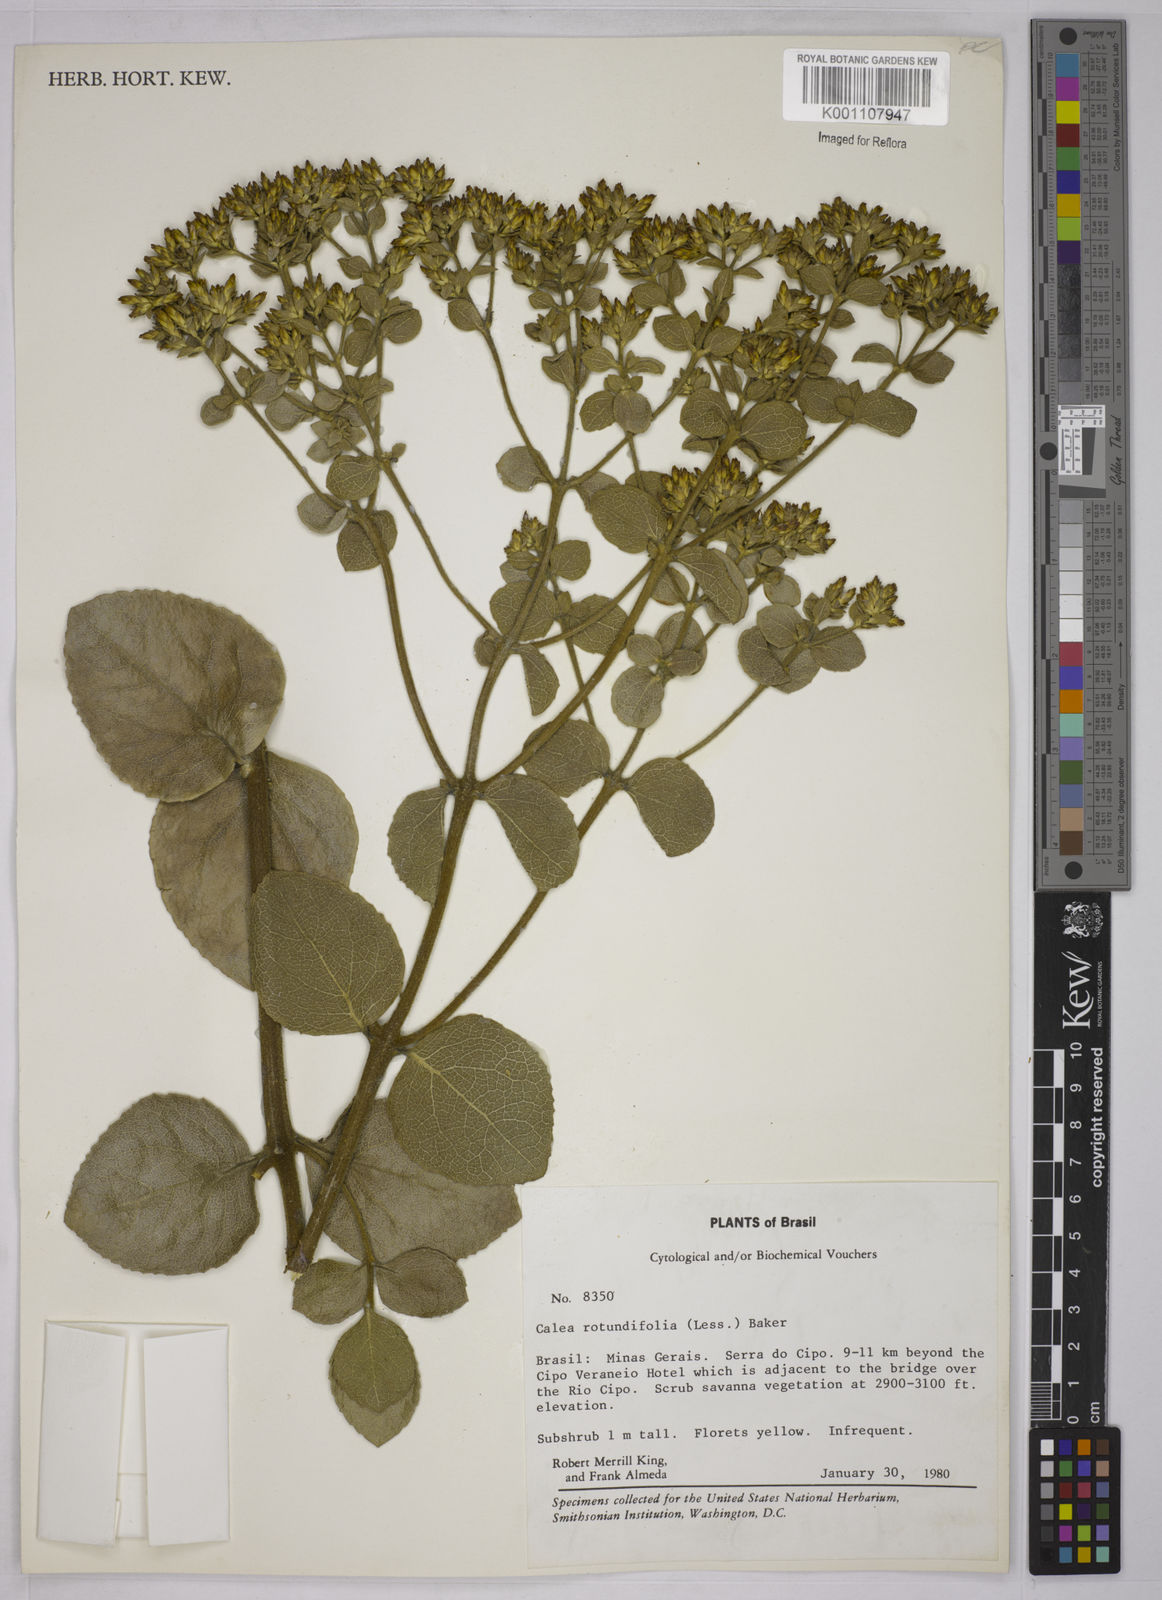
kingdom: Plantae
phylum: Tracheophyta
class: Magnoliopsida
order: Asterales
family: Asteraceae
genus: Calea
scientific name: Calea rotundifolia
